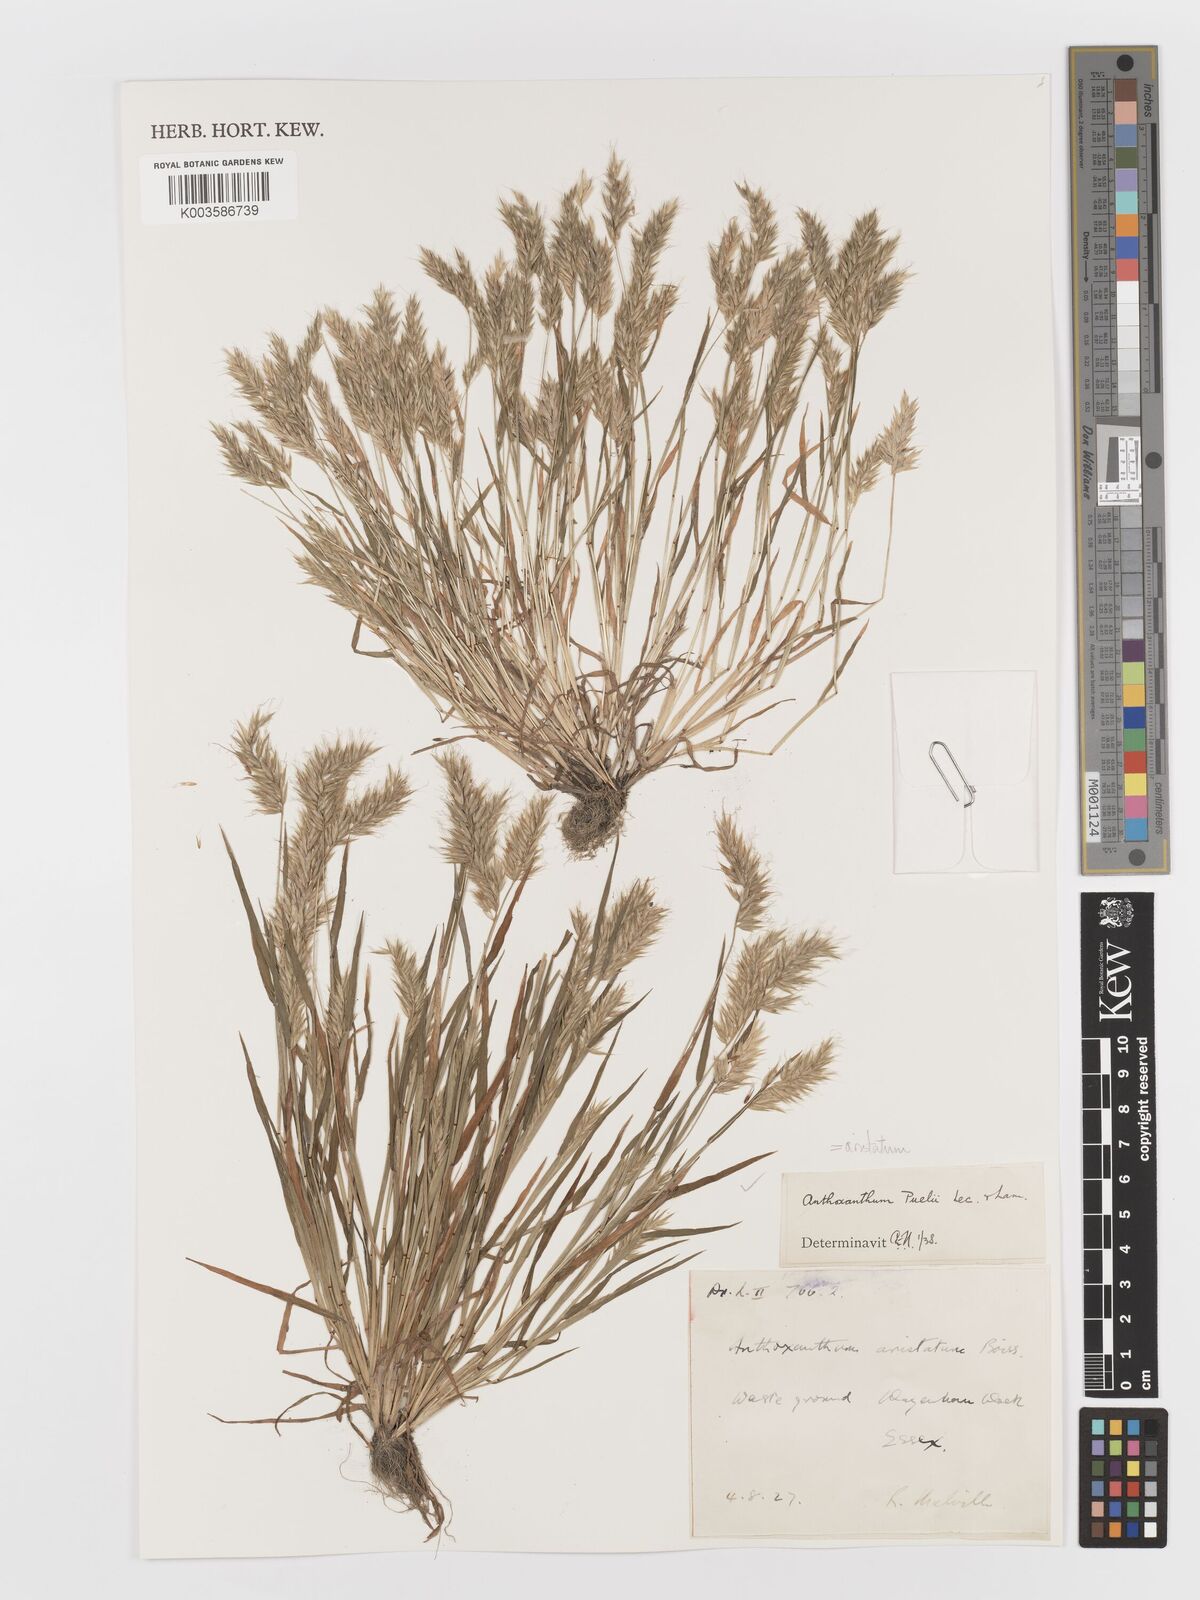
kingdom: Plantae
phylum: Tracheophyta
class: Liliopsida
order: Poales
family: Poaceae
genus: Anthoxanthum
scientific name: Anthoxanthum aristatum
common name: Annual vernal-grass
